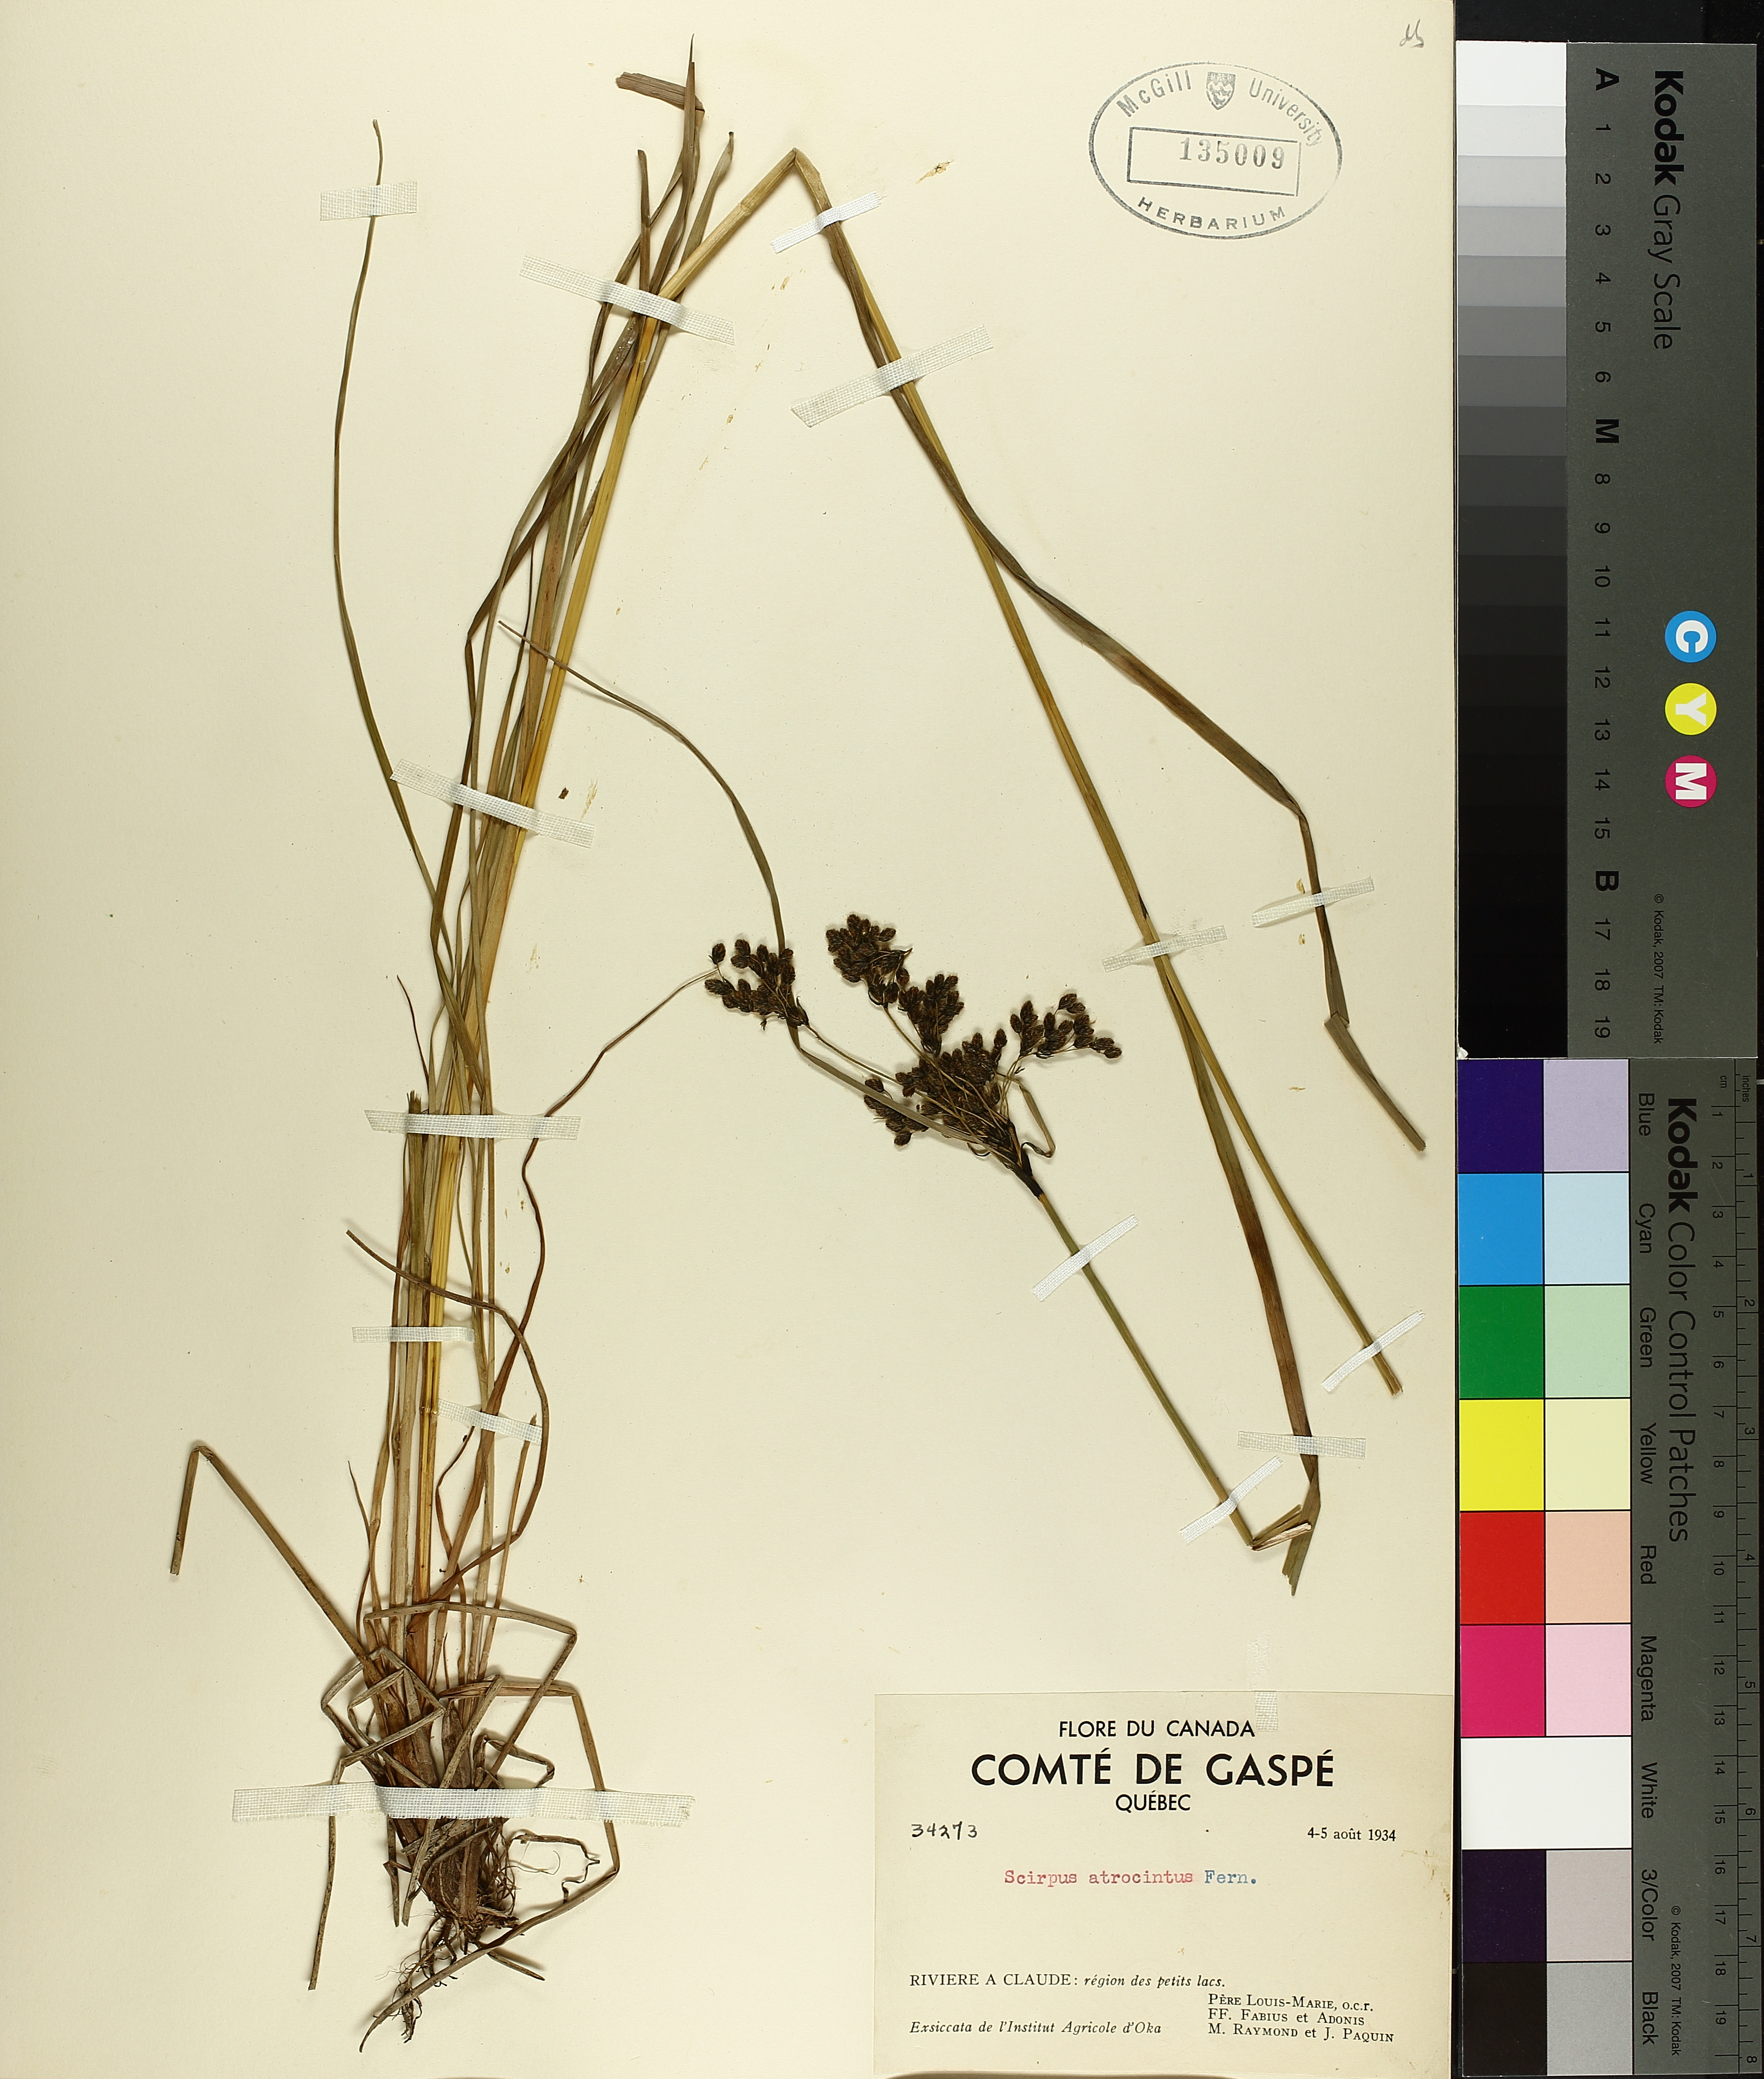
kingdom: Plantae
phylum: Tracheophyta
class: Liliopsida
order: Poales
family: Cyperaceae
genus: Scirpus
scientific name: Scirpus atrocinctus
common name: Black-girdled bulrush
